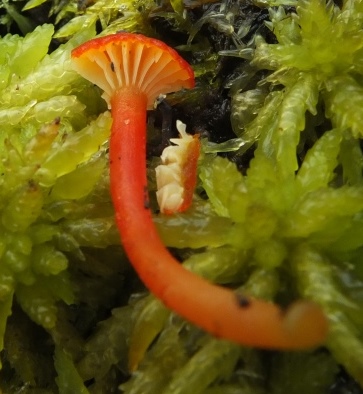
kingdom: Fungi
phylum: Basidiomycota
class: Agaricomycetes
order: Agaricales
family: Hygrophoraceae
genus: Hygrocybe
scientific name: Hygrocybe coccineocrenata
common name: tørvemos-vokshat
